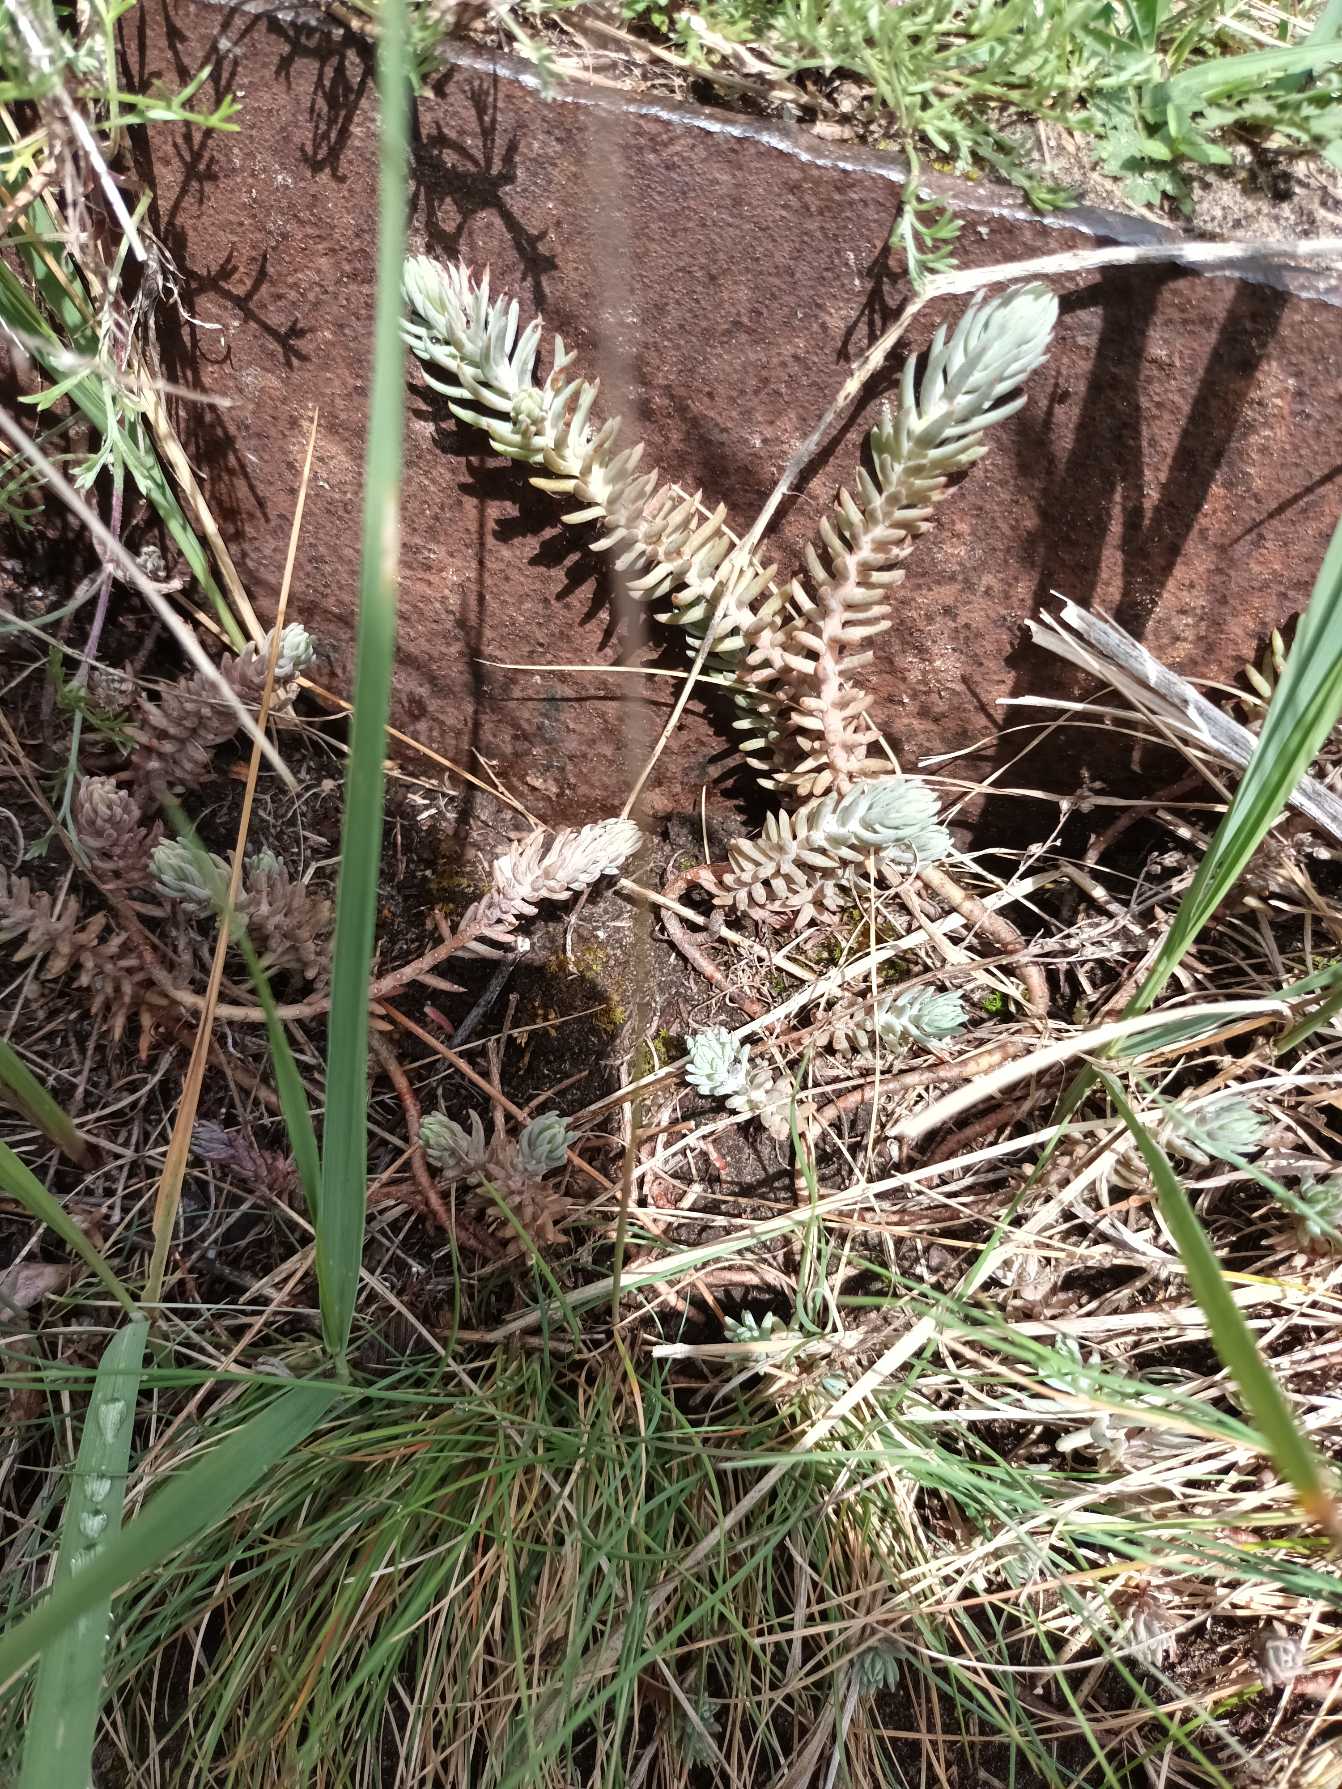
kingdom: Plantae
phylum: Tracheophyta
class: Magnoliopsida
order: Saxifragales
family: Crassulaceae
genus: Petrosedum
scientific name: Petrosedum rupestre
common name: Bjerg-stenurt
